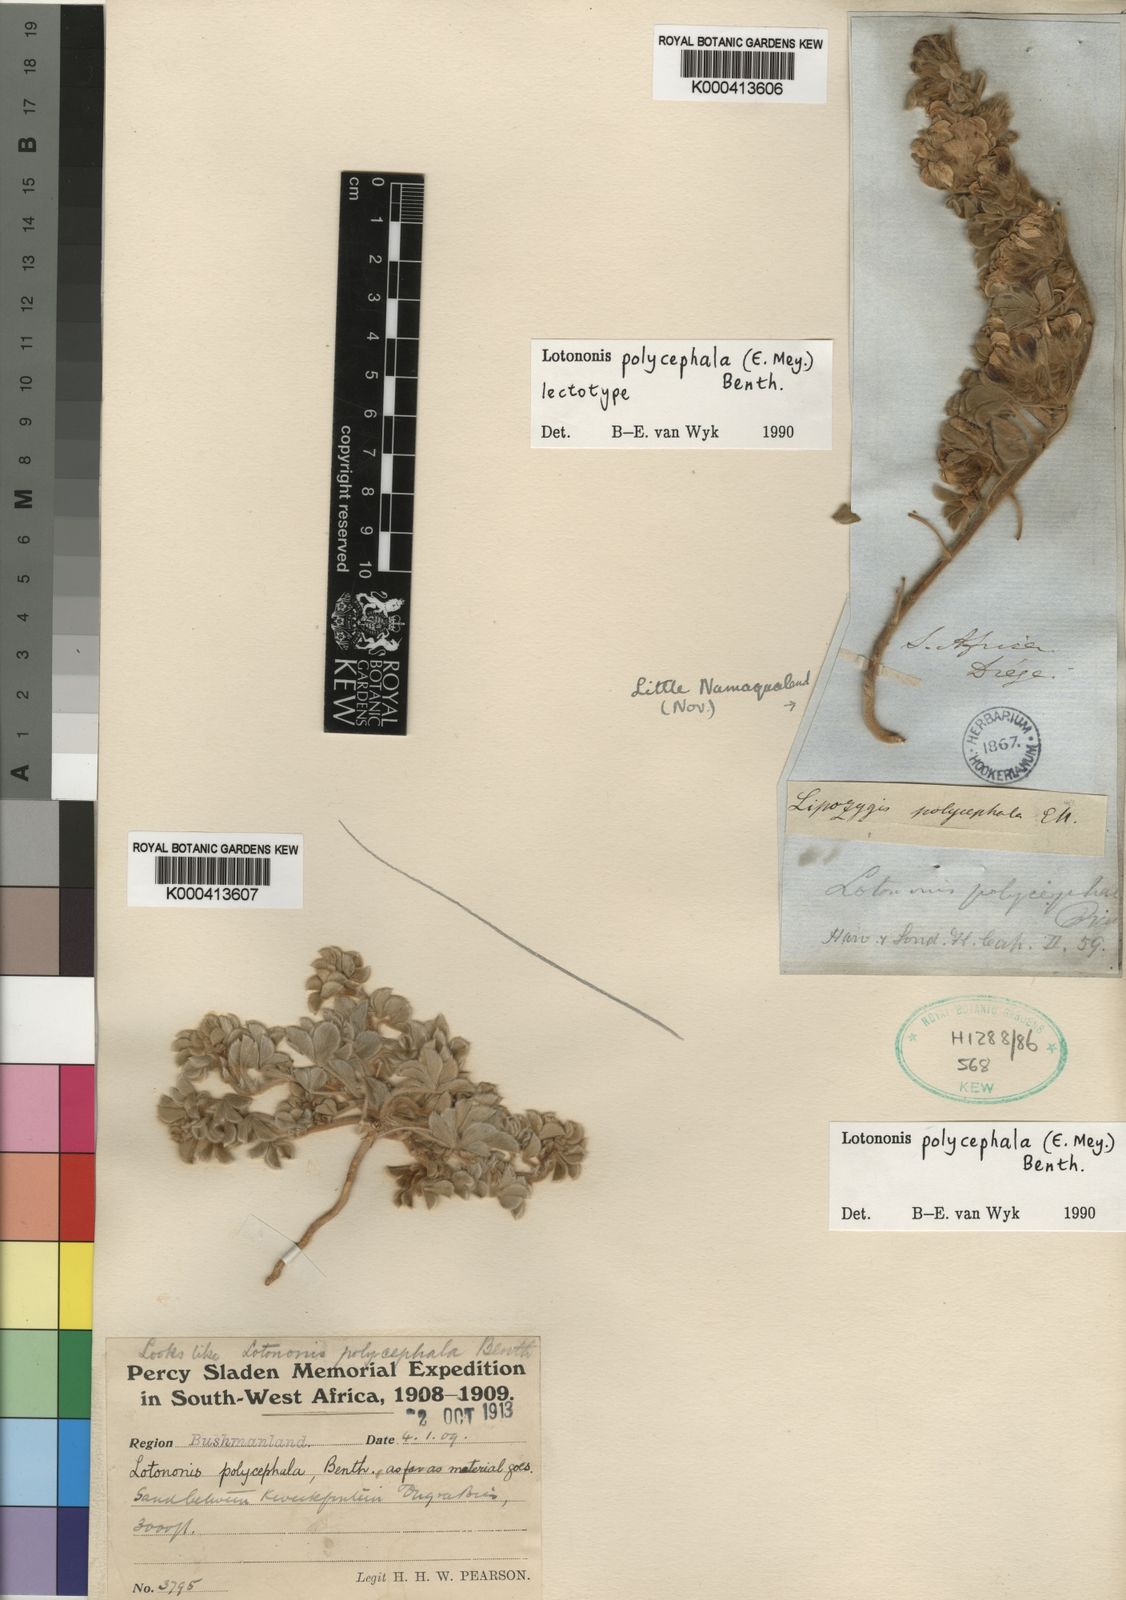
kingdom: Plantae
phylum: Tracheophyta
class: Magnoliopsida
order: Fabales
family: Fabaceae
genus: Leobordea
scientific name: Leobordea polycephala
